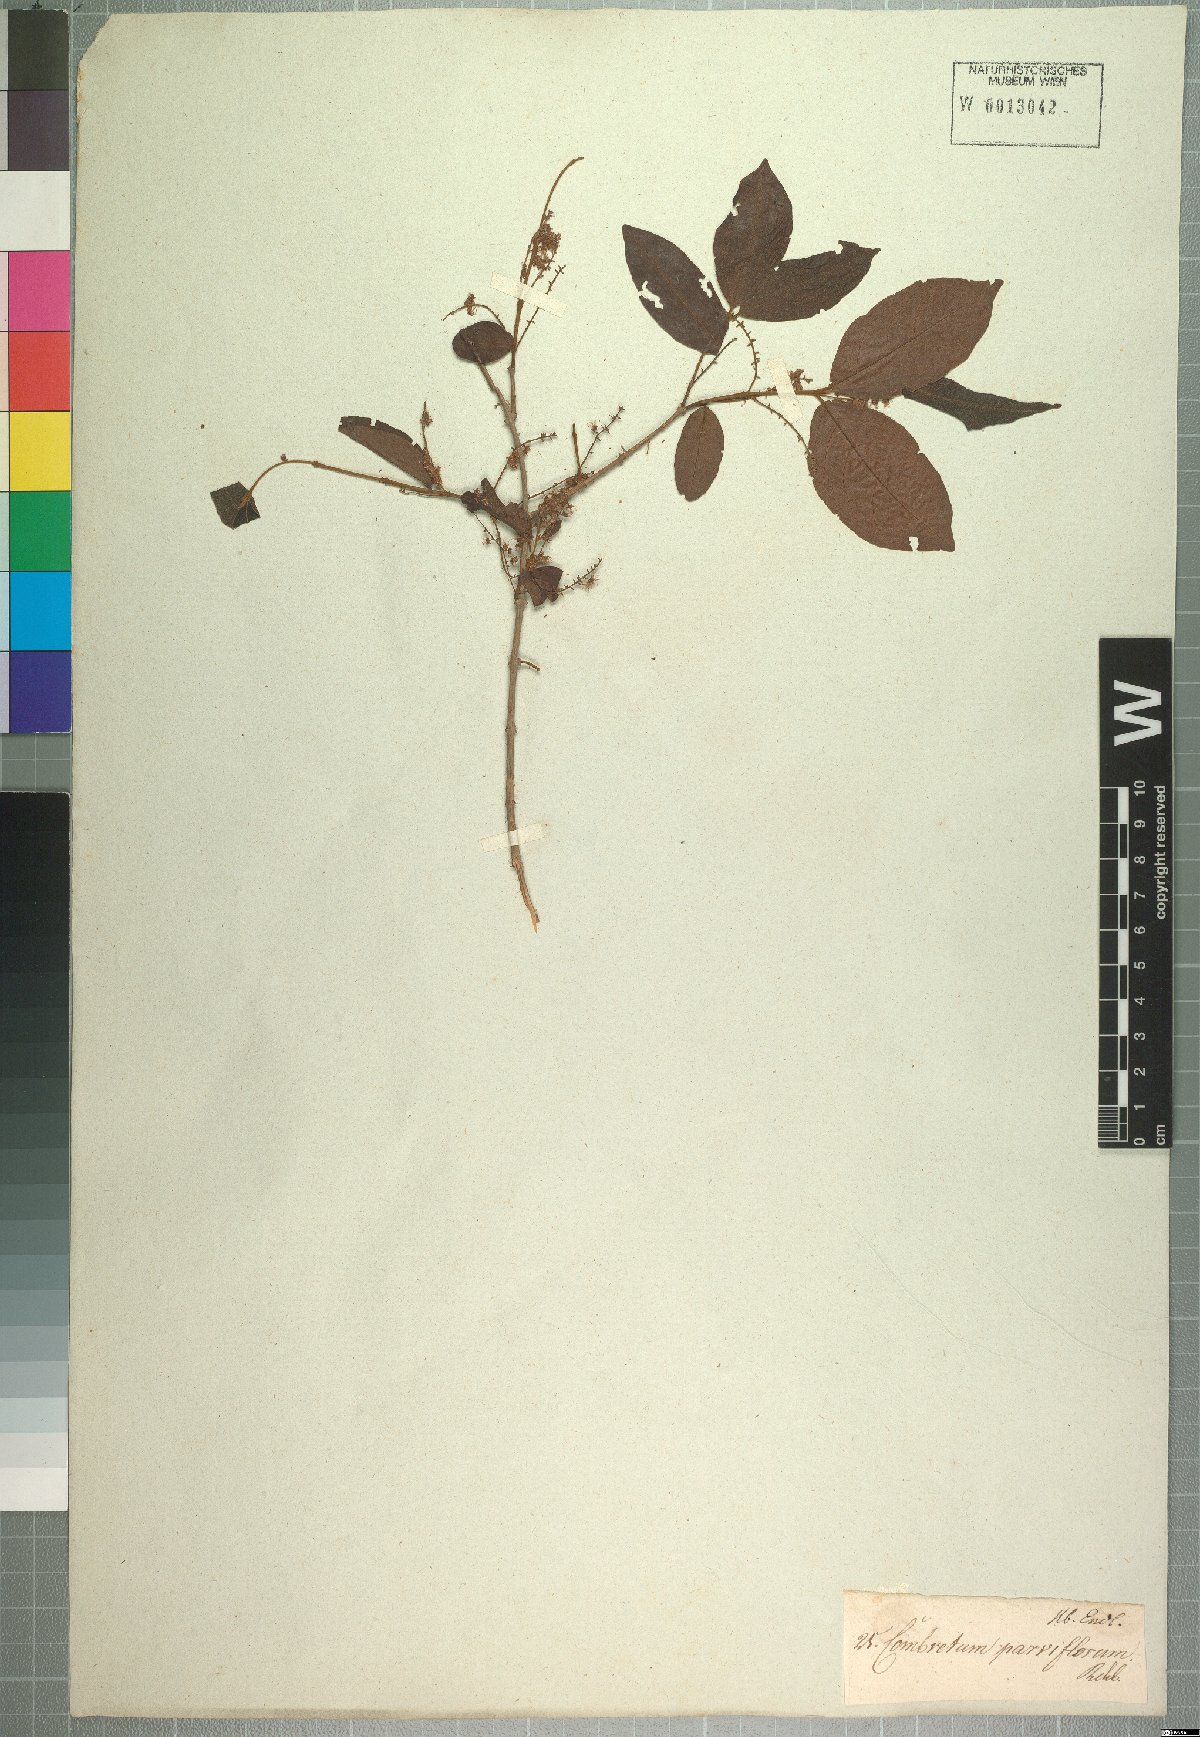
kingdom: Plantae
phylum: Tracheophyta
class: Magnoliopsida
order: Myrtales
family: Combretaceae
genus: Combretum
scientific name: Combretum micranthum
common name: Opium-antidote
